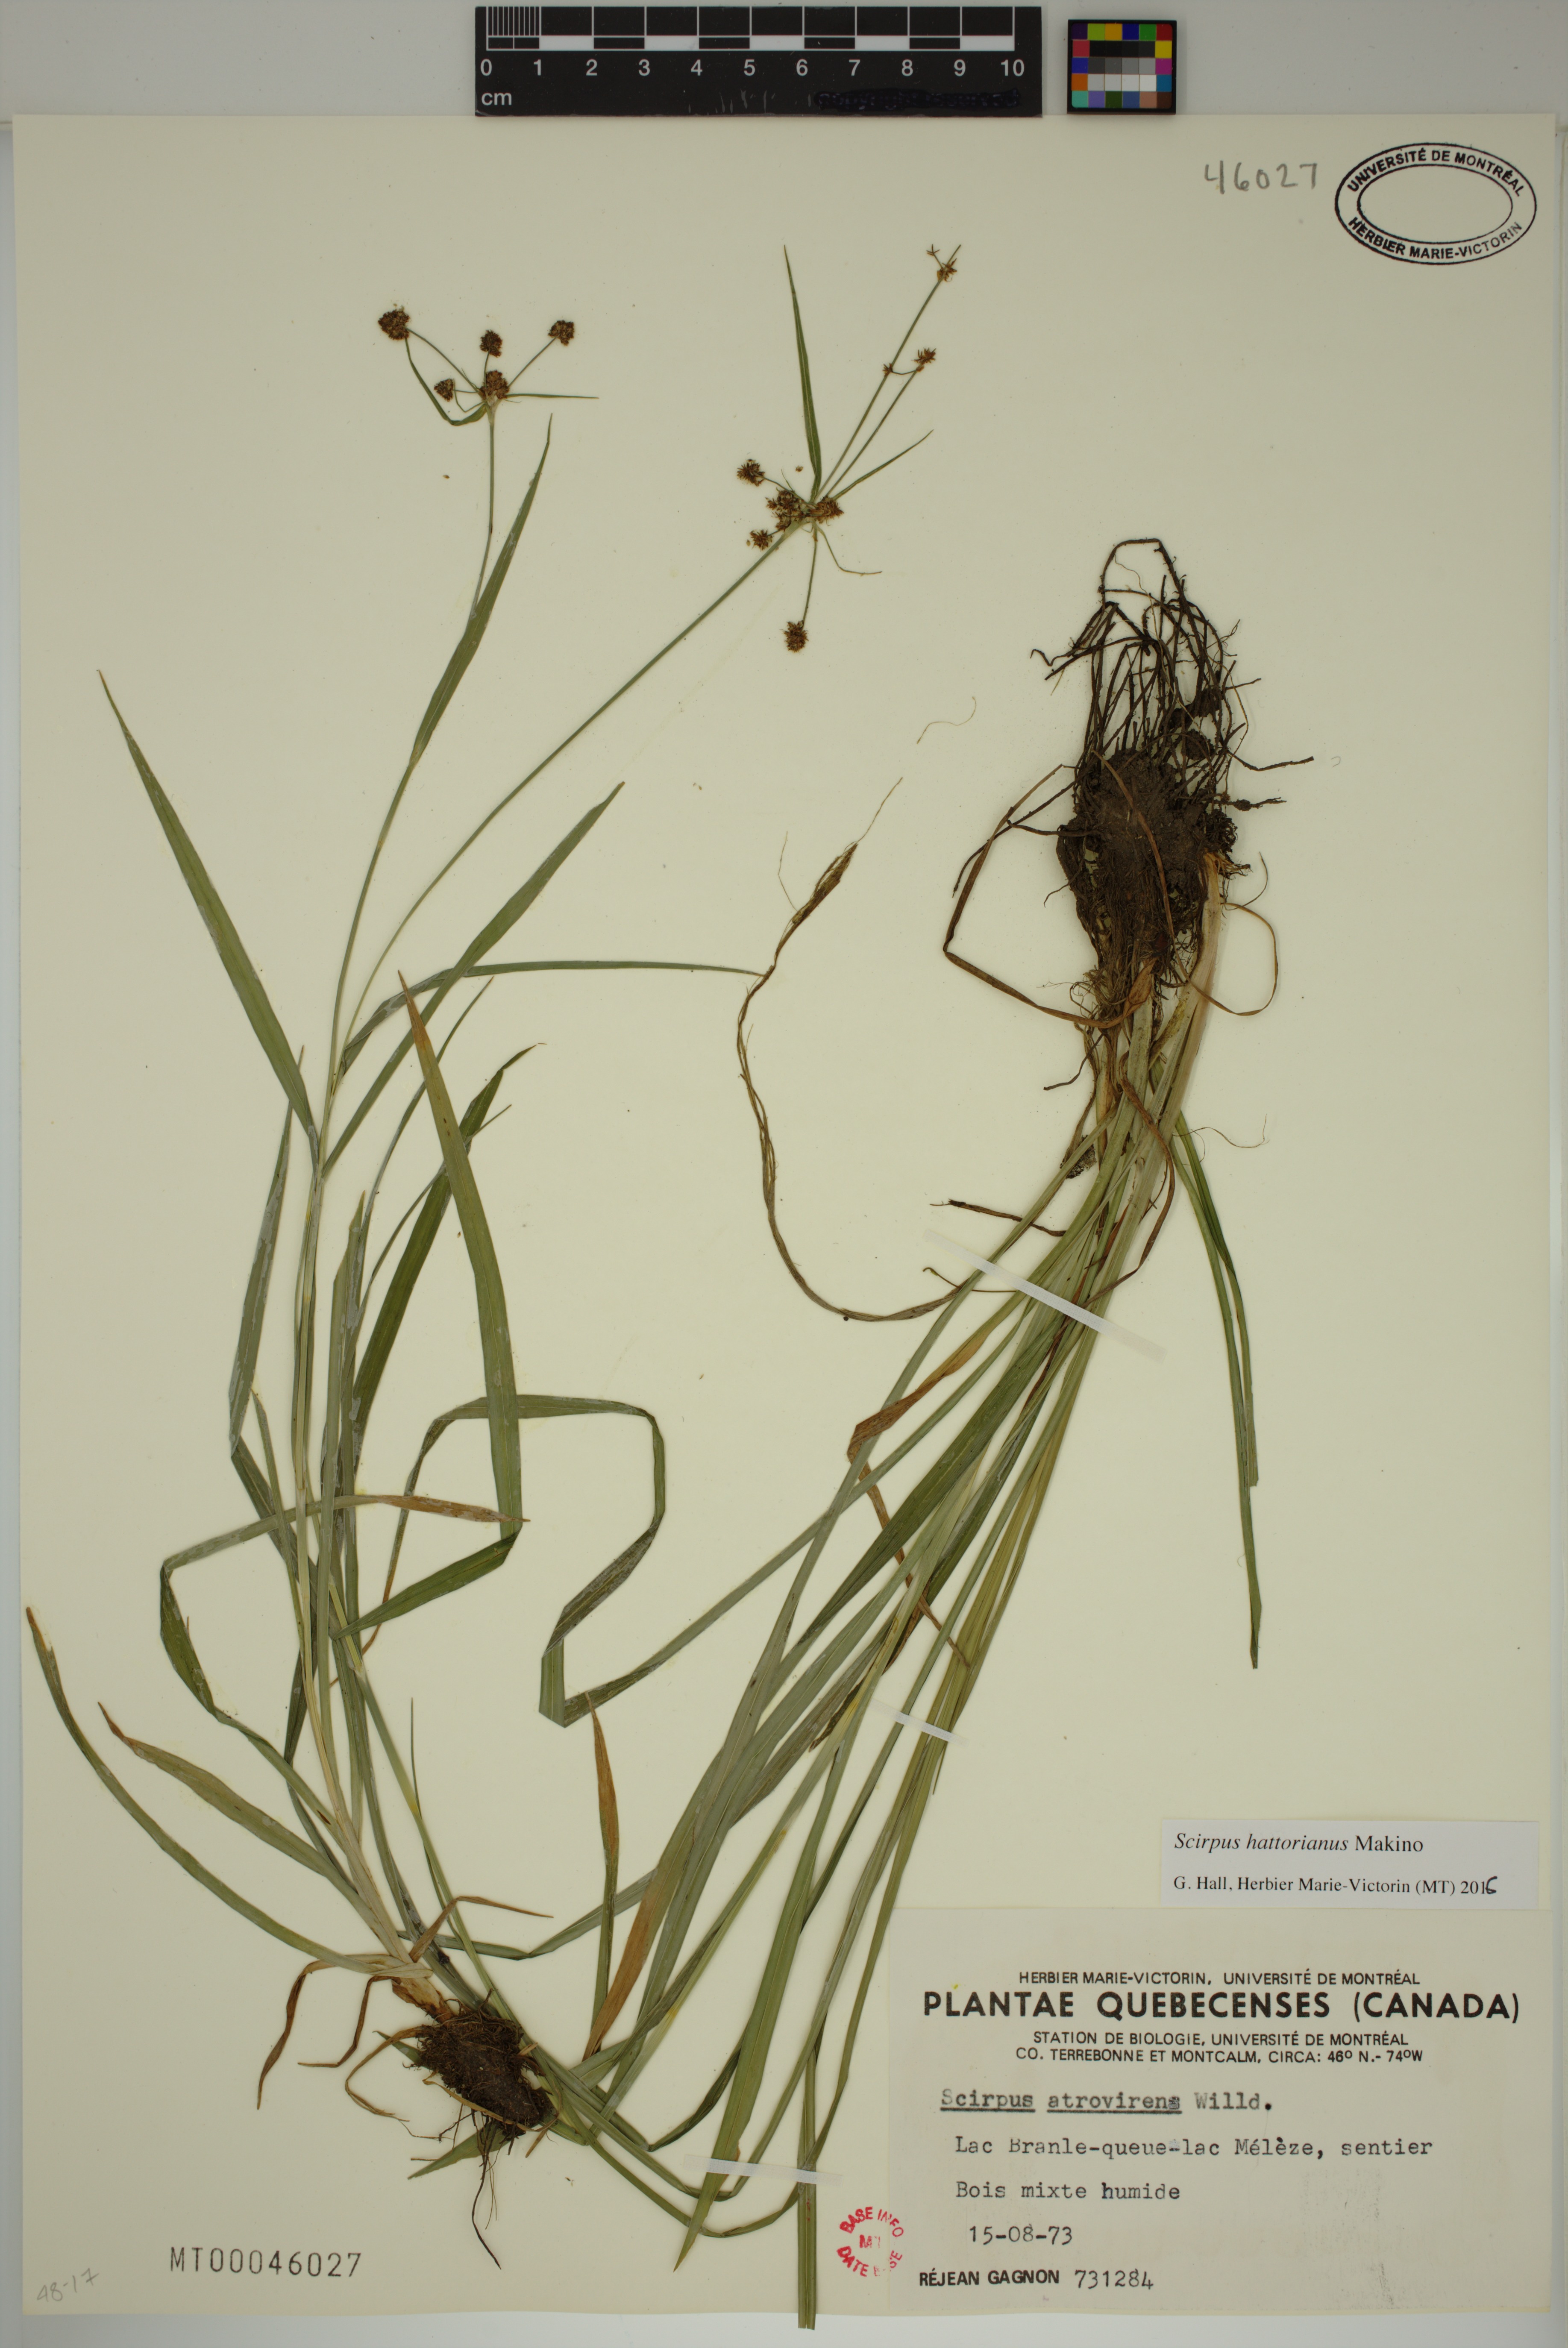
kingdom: Plantae
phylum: Tracheophyta
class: Liliopsida
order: Poales
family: Cyperaceae
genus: Scirpus
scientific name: Scirpus hattorianus
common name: Early dark-green bulrush
